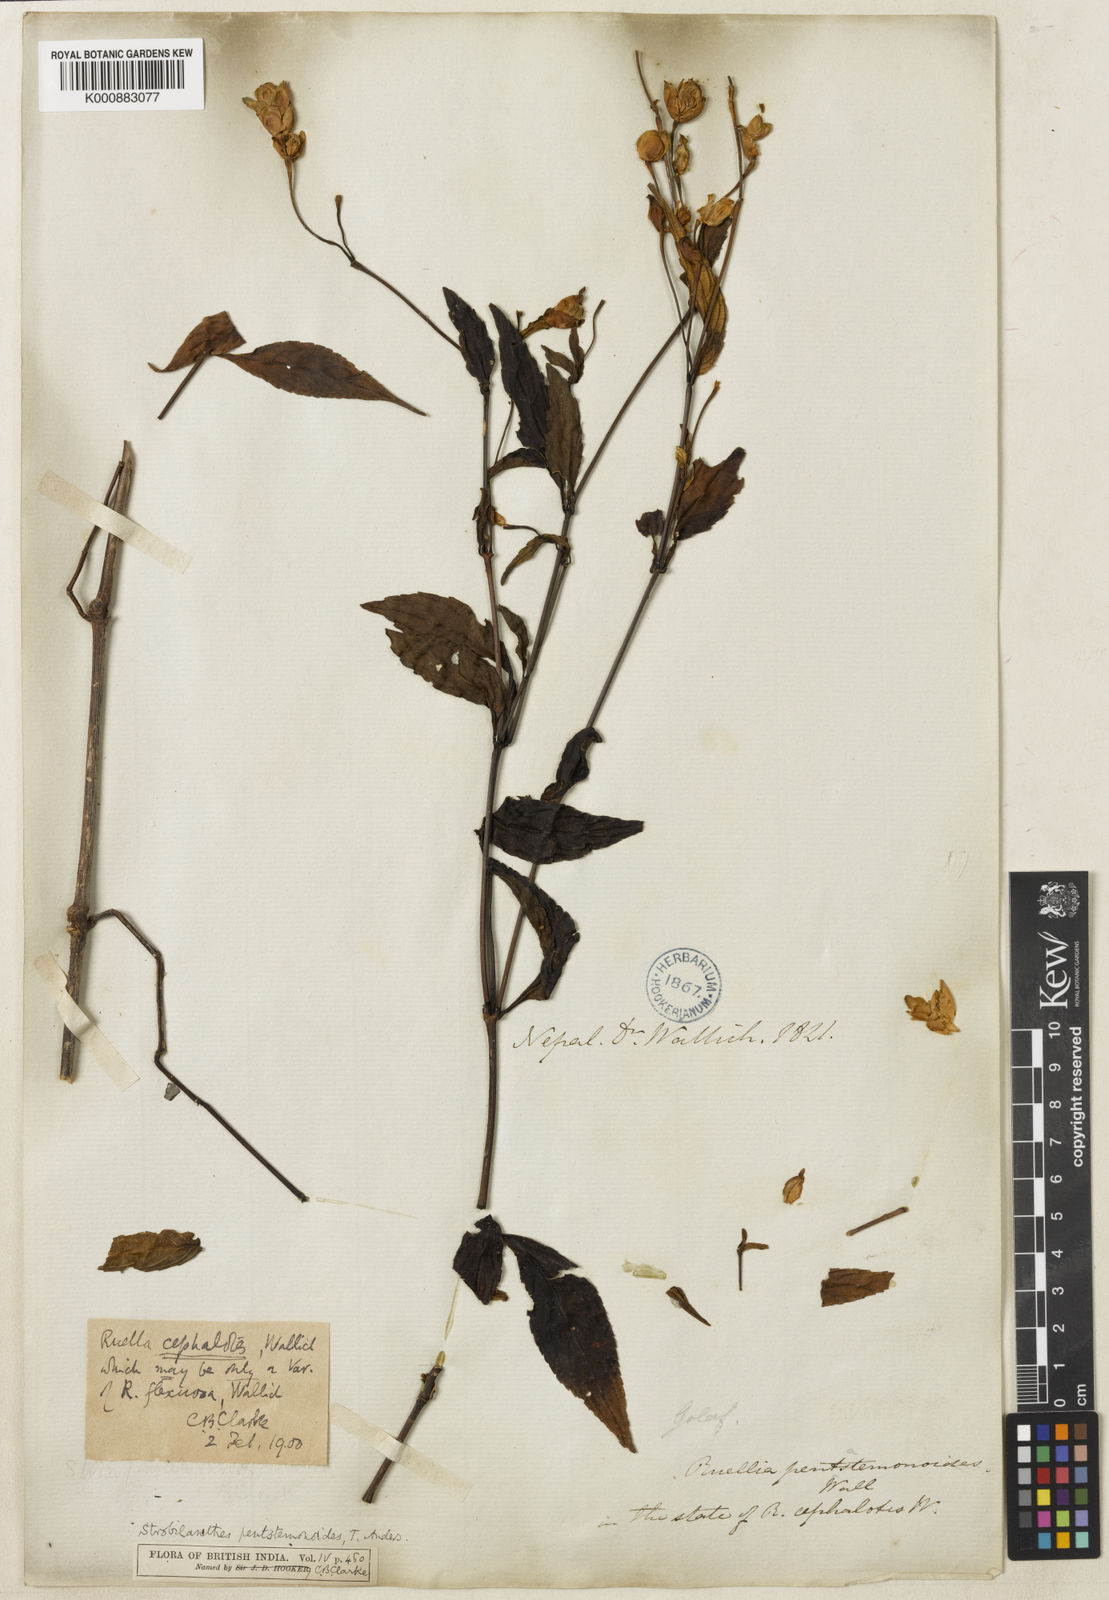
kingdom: Plantae
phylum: Tracheophyta
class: Magnoliopsida
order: Lamiales
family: Acanthaceae
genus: Strobilanthes
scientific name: Strobilanthes
